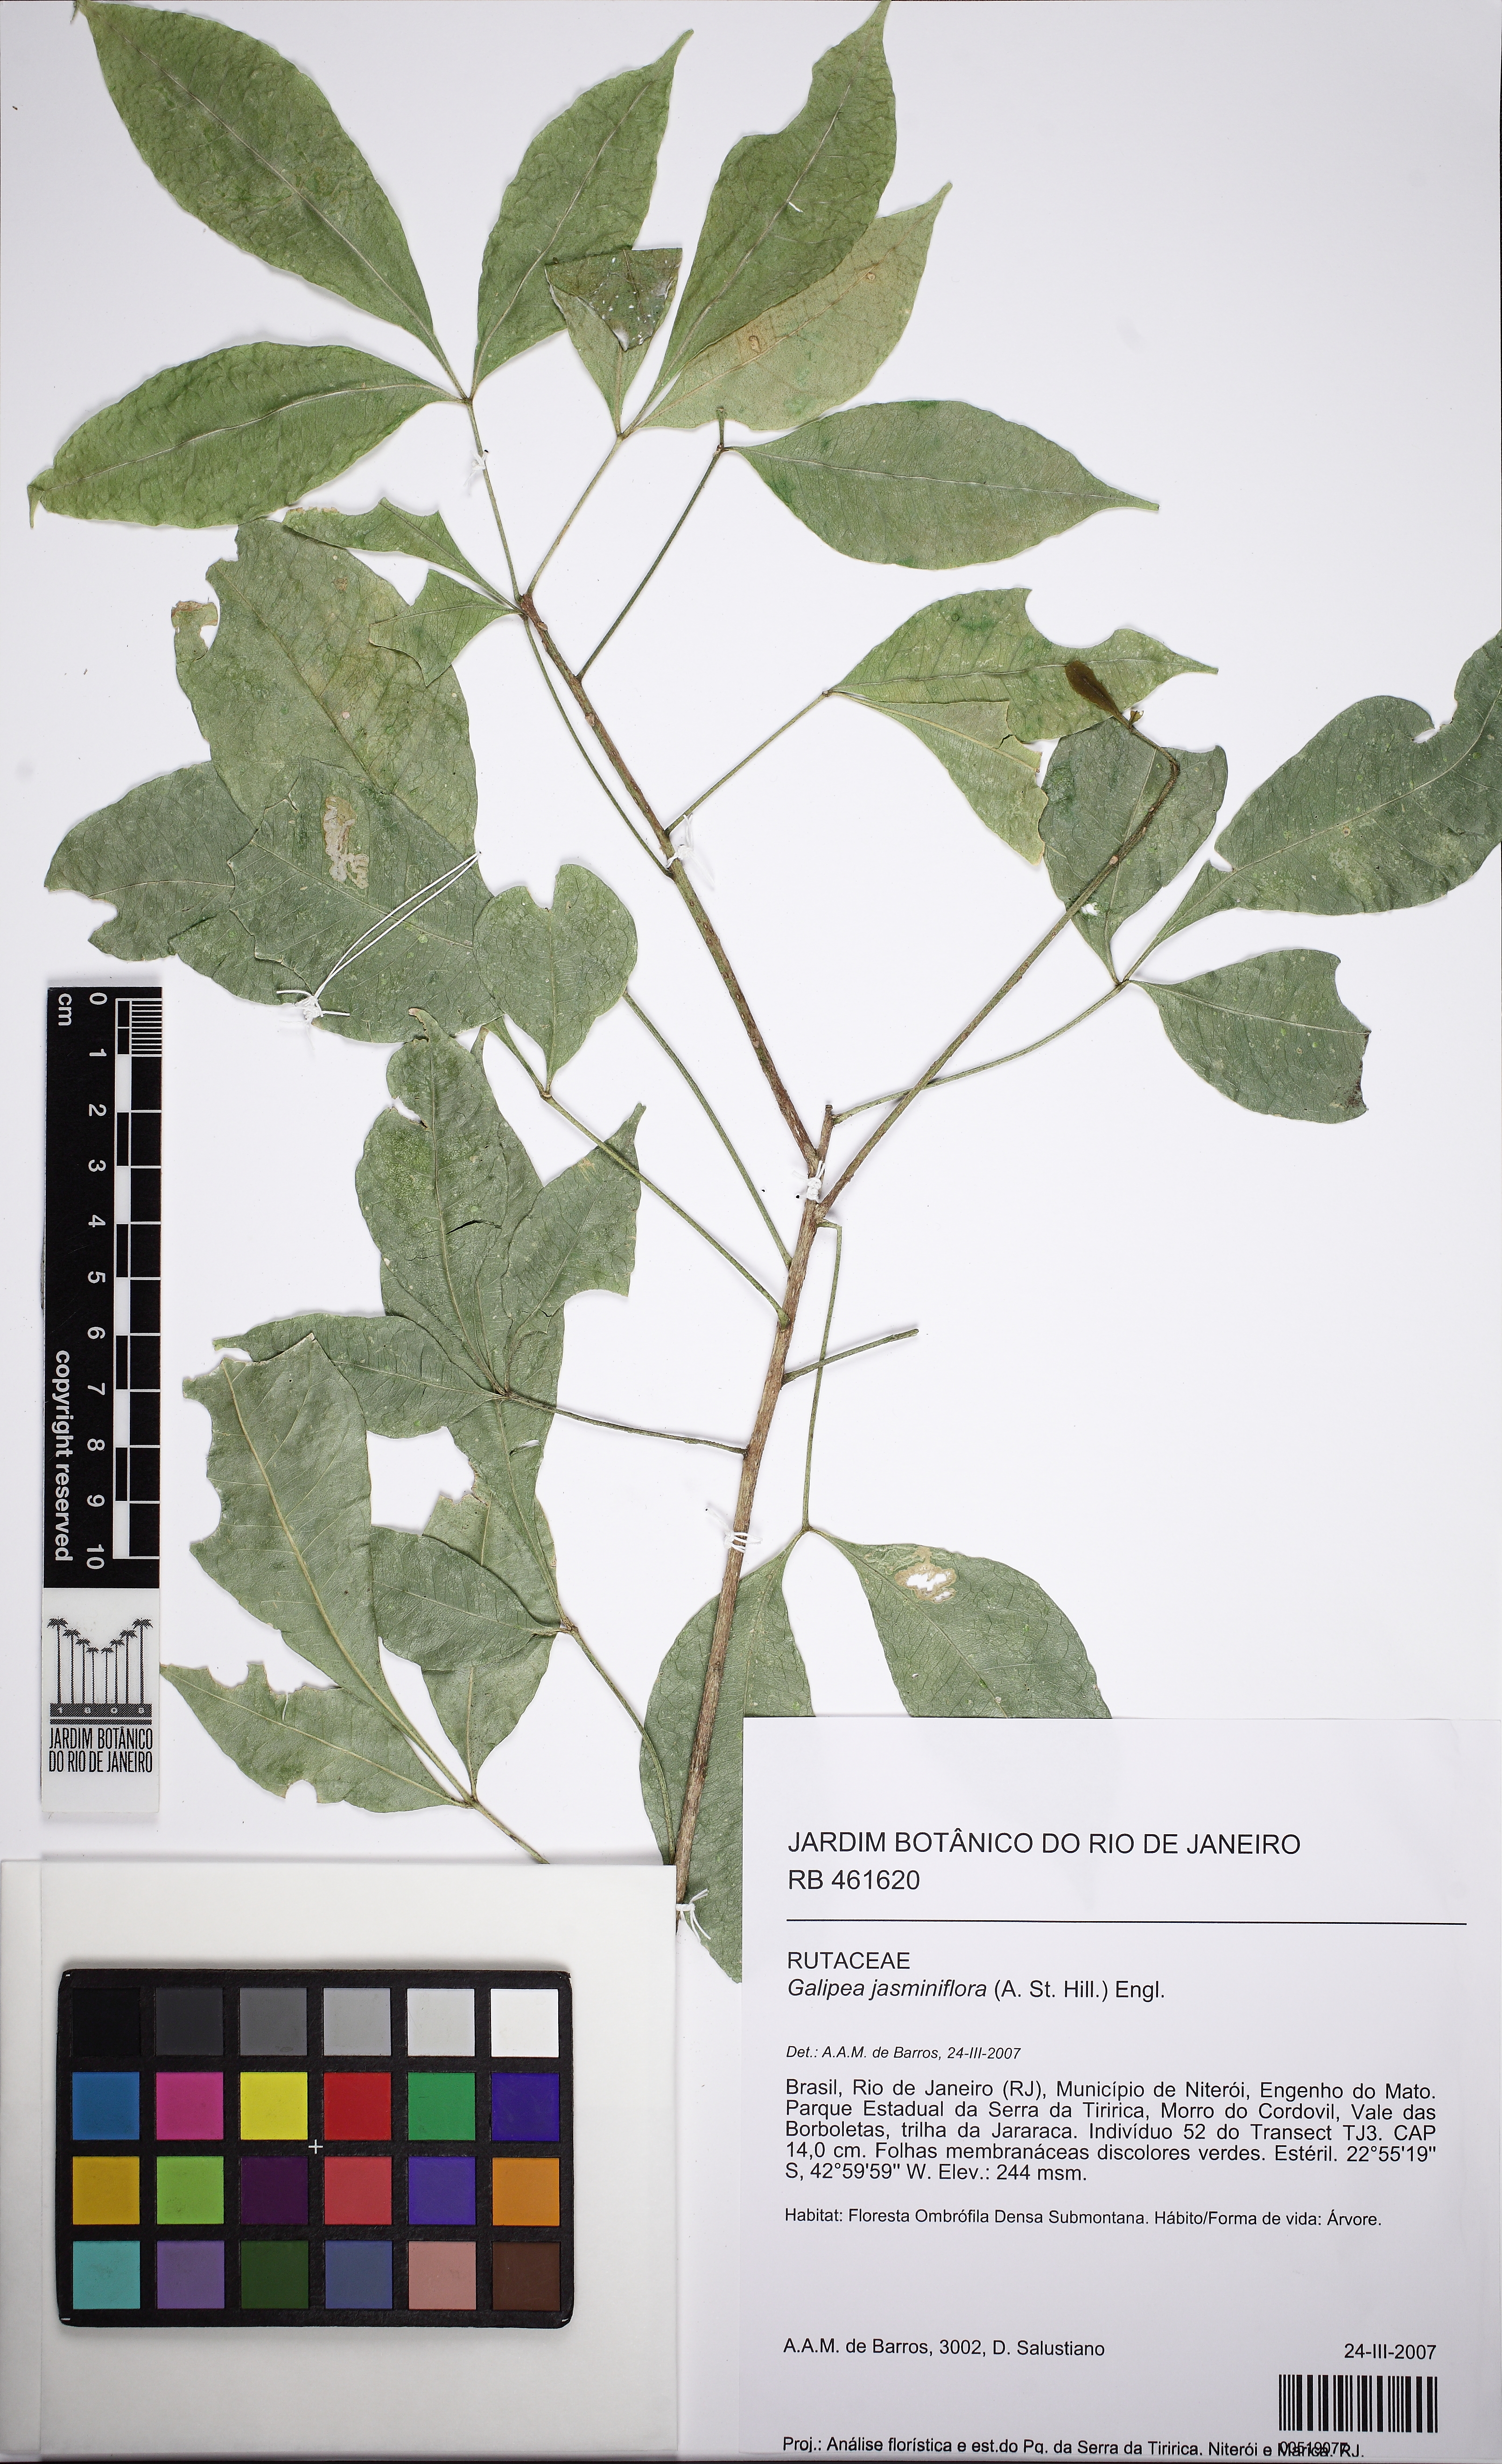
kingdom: Plantae
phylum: Tracheophyta
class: Magnoliopsida
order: Sapindales
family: Rutaceae
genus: Galipea
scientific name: Galipea jasminiflora
